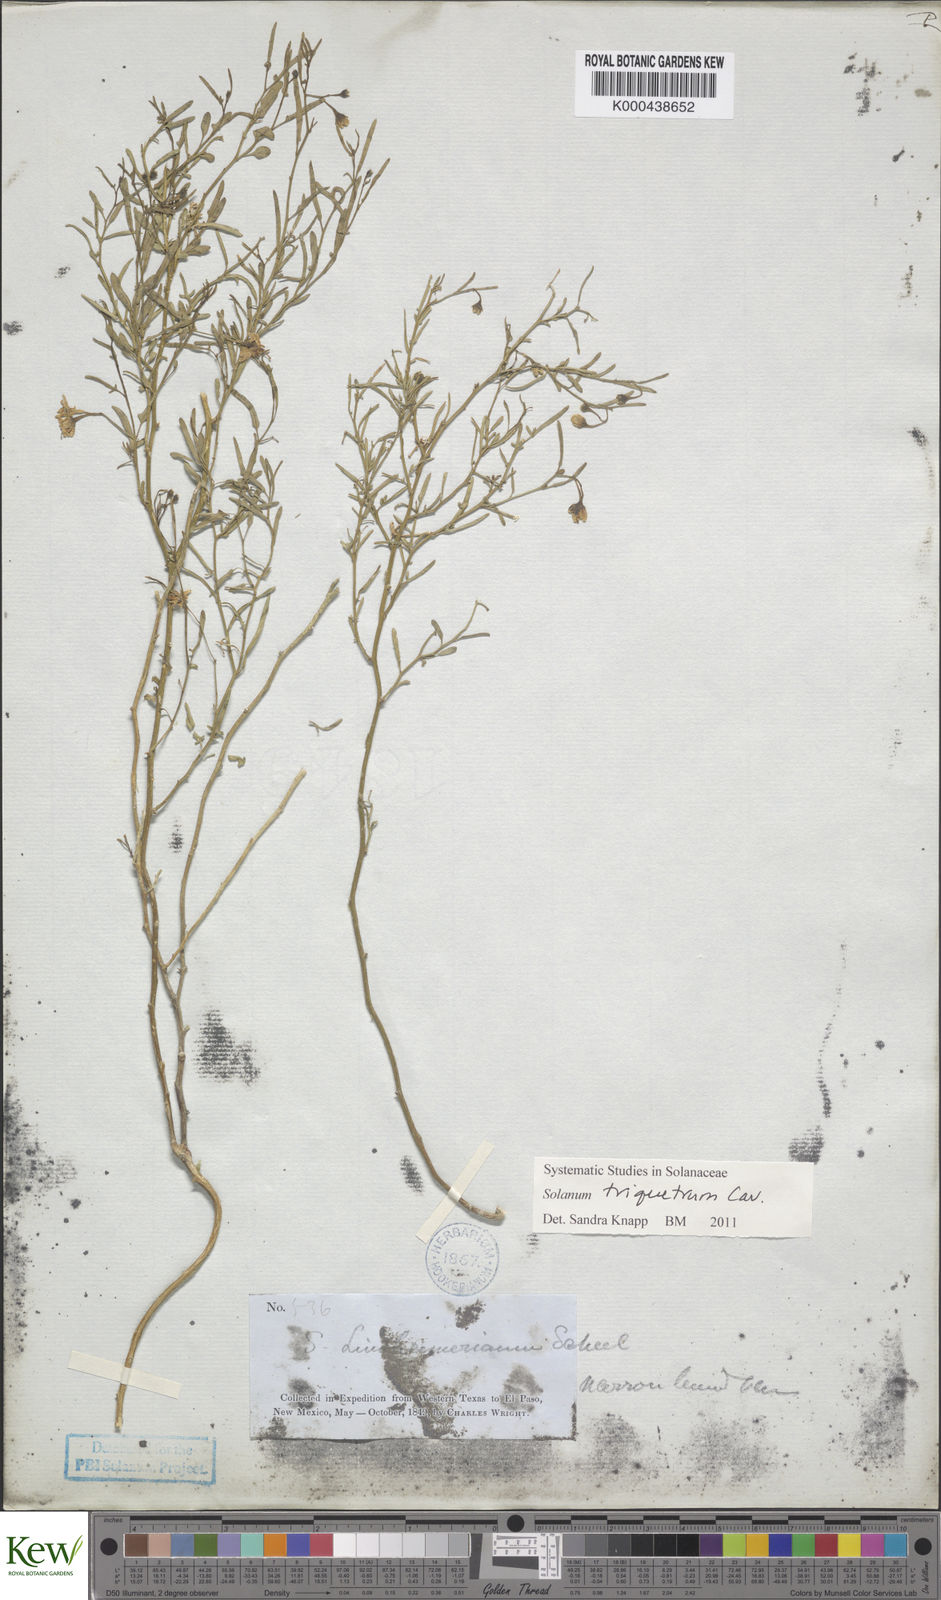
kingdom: Plantae
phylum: Tracheophyta
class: Magnoliopsida
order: Solanales
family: Solanaceae
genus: Solanum
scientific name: Solanum triquetrum
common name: Texas nightshade
